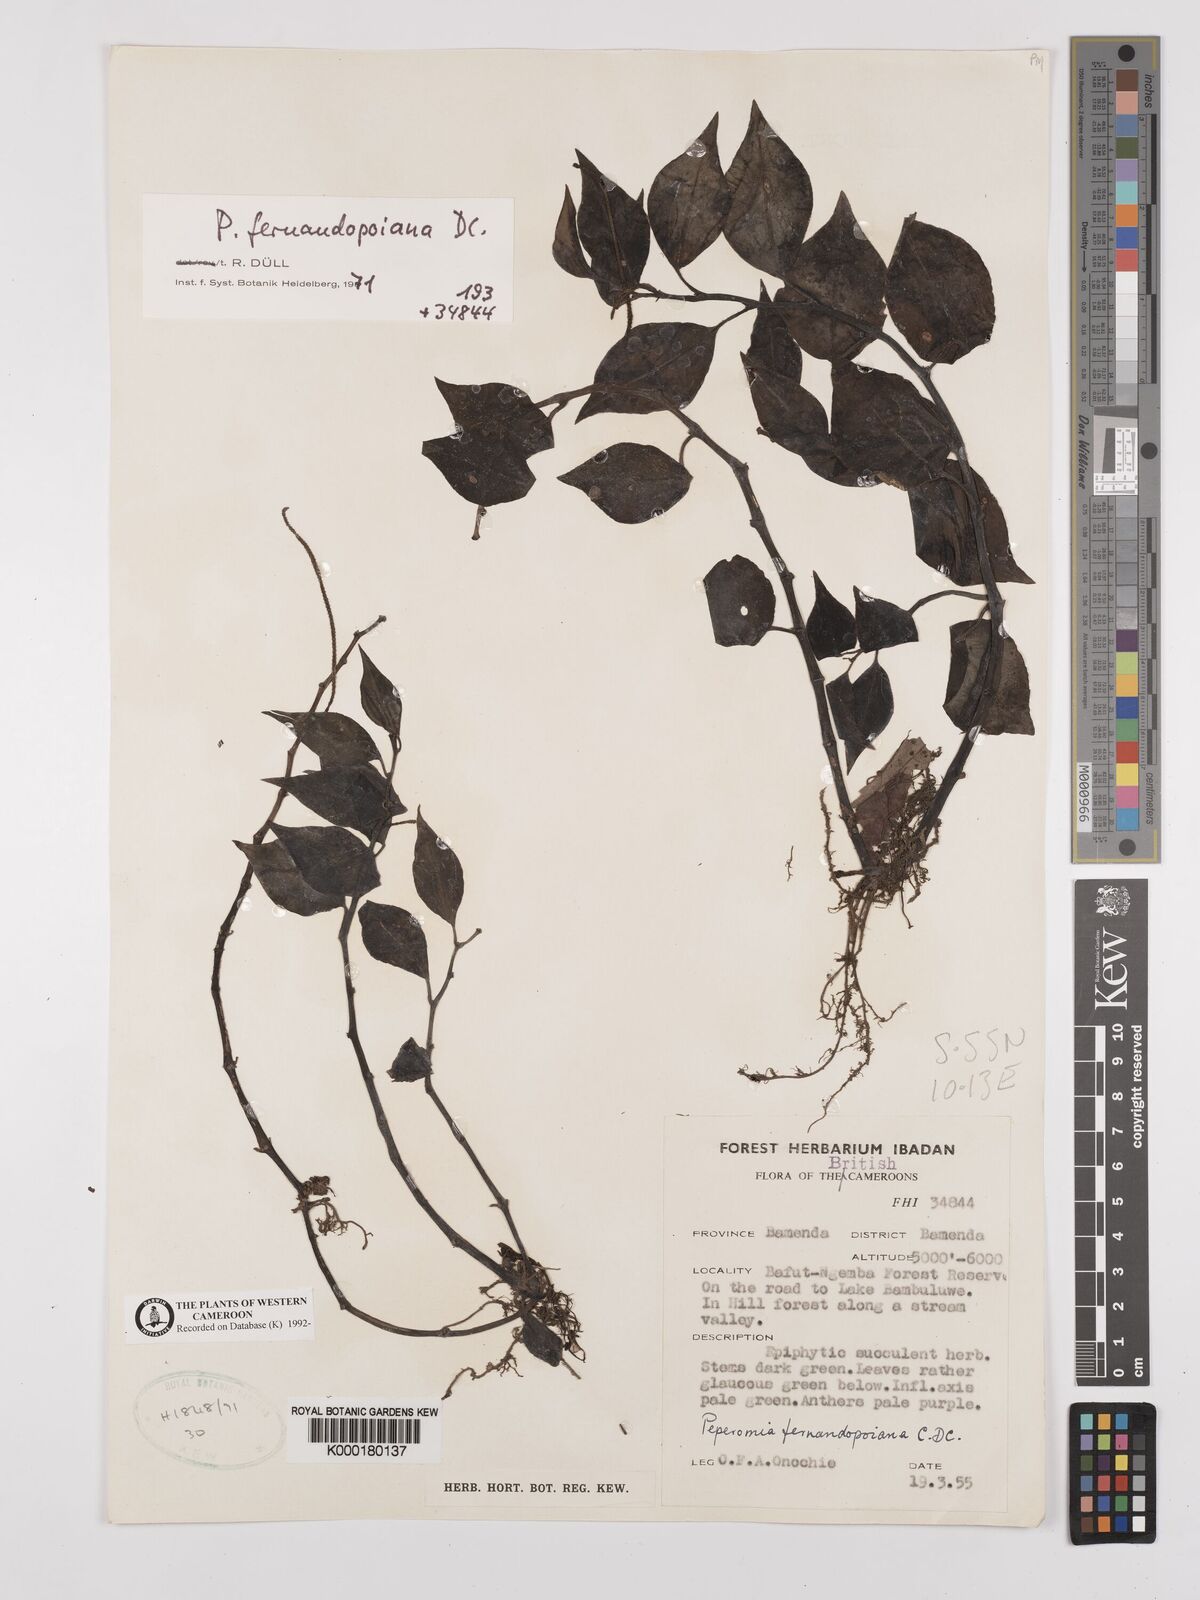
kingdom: Plantae
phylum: Tracheophyta
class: Magnoliopsida
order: Piperales
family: Piperaceae
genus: Peperomia
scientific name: Peperomia fernandopoiana
